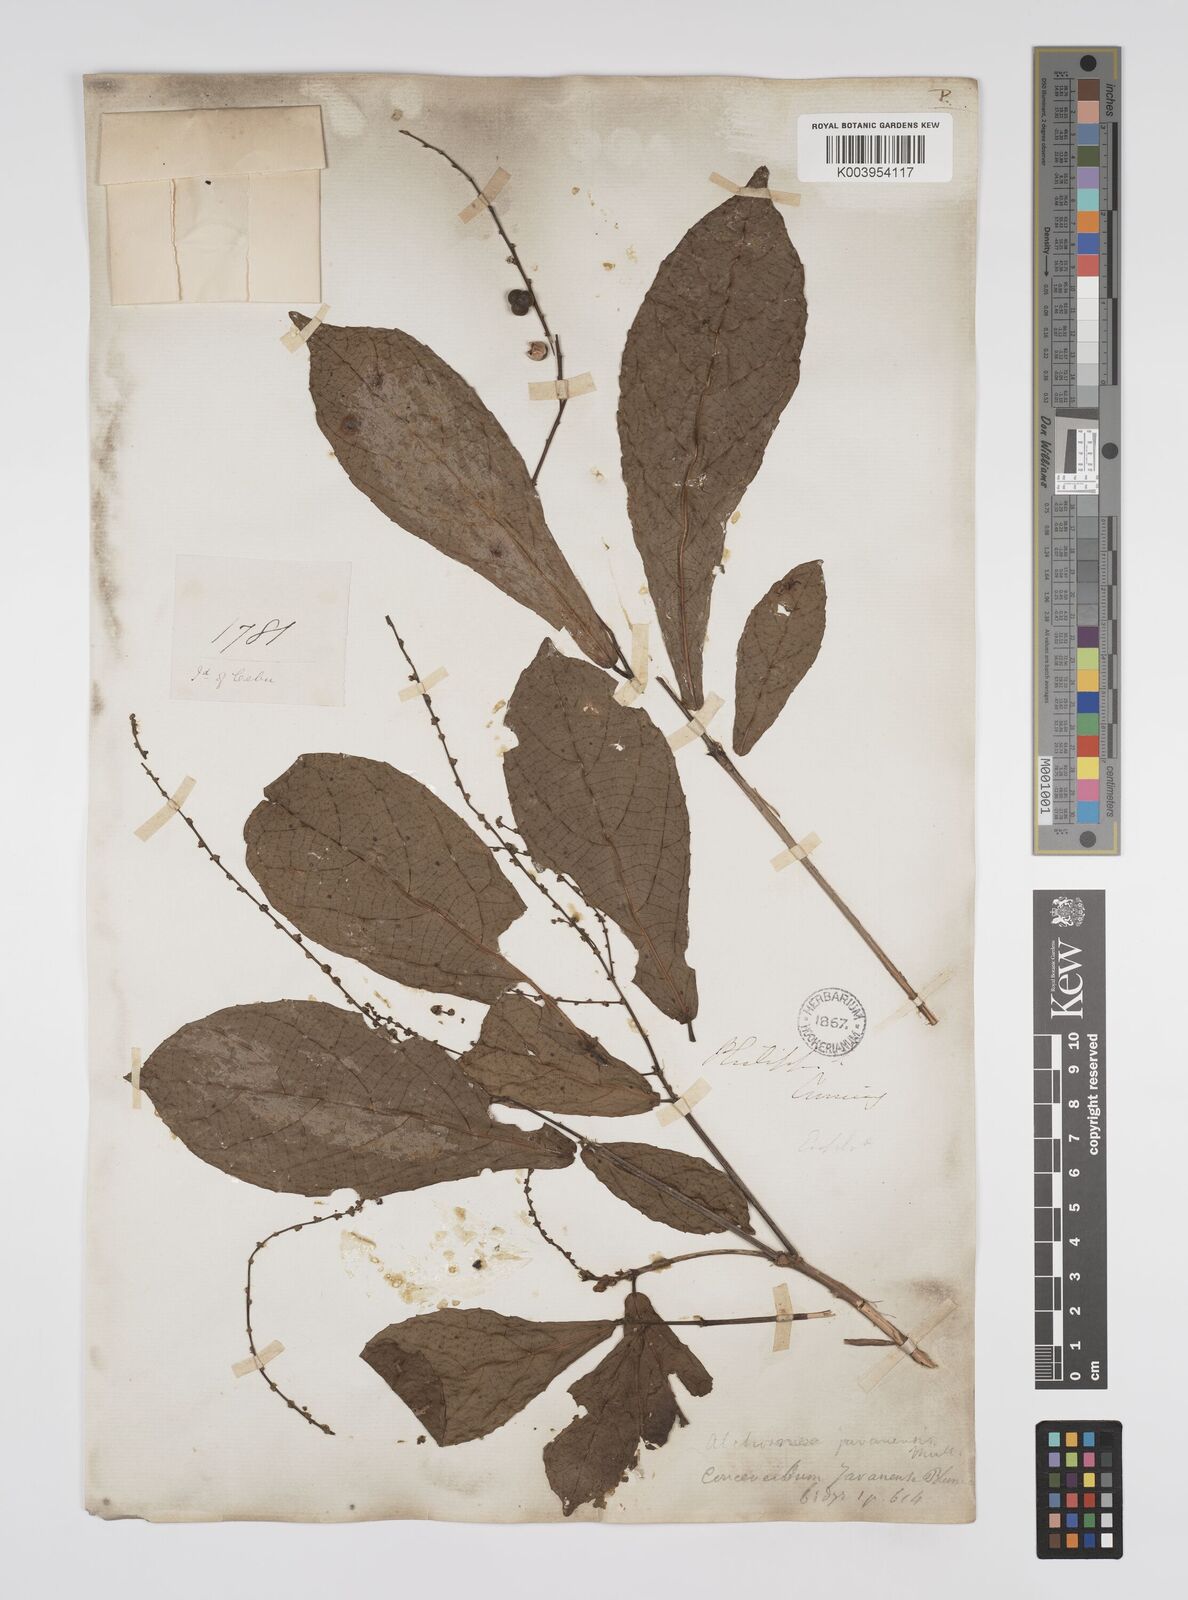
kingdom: Plantae
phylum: Tracheophyta
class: Magnoliopsida
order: Malpighiales
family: Euphorbiaceae
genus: Alchornea
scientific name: Alchornea rugosa
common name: Alchorntree
